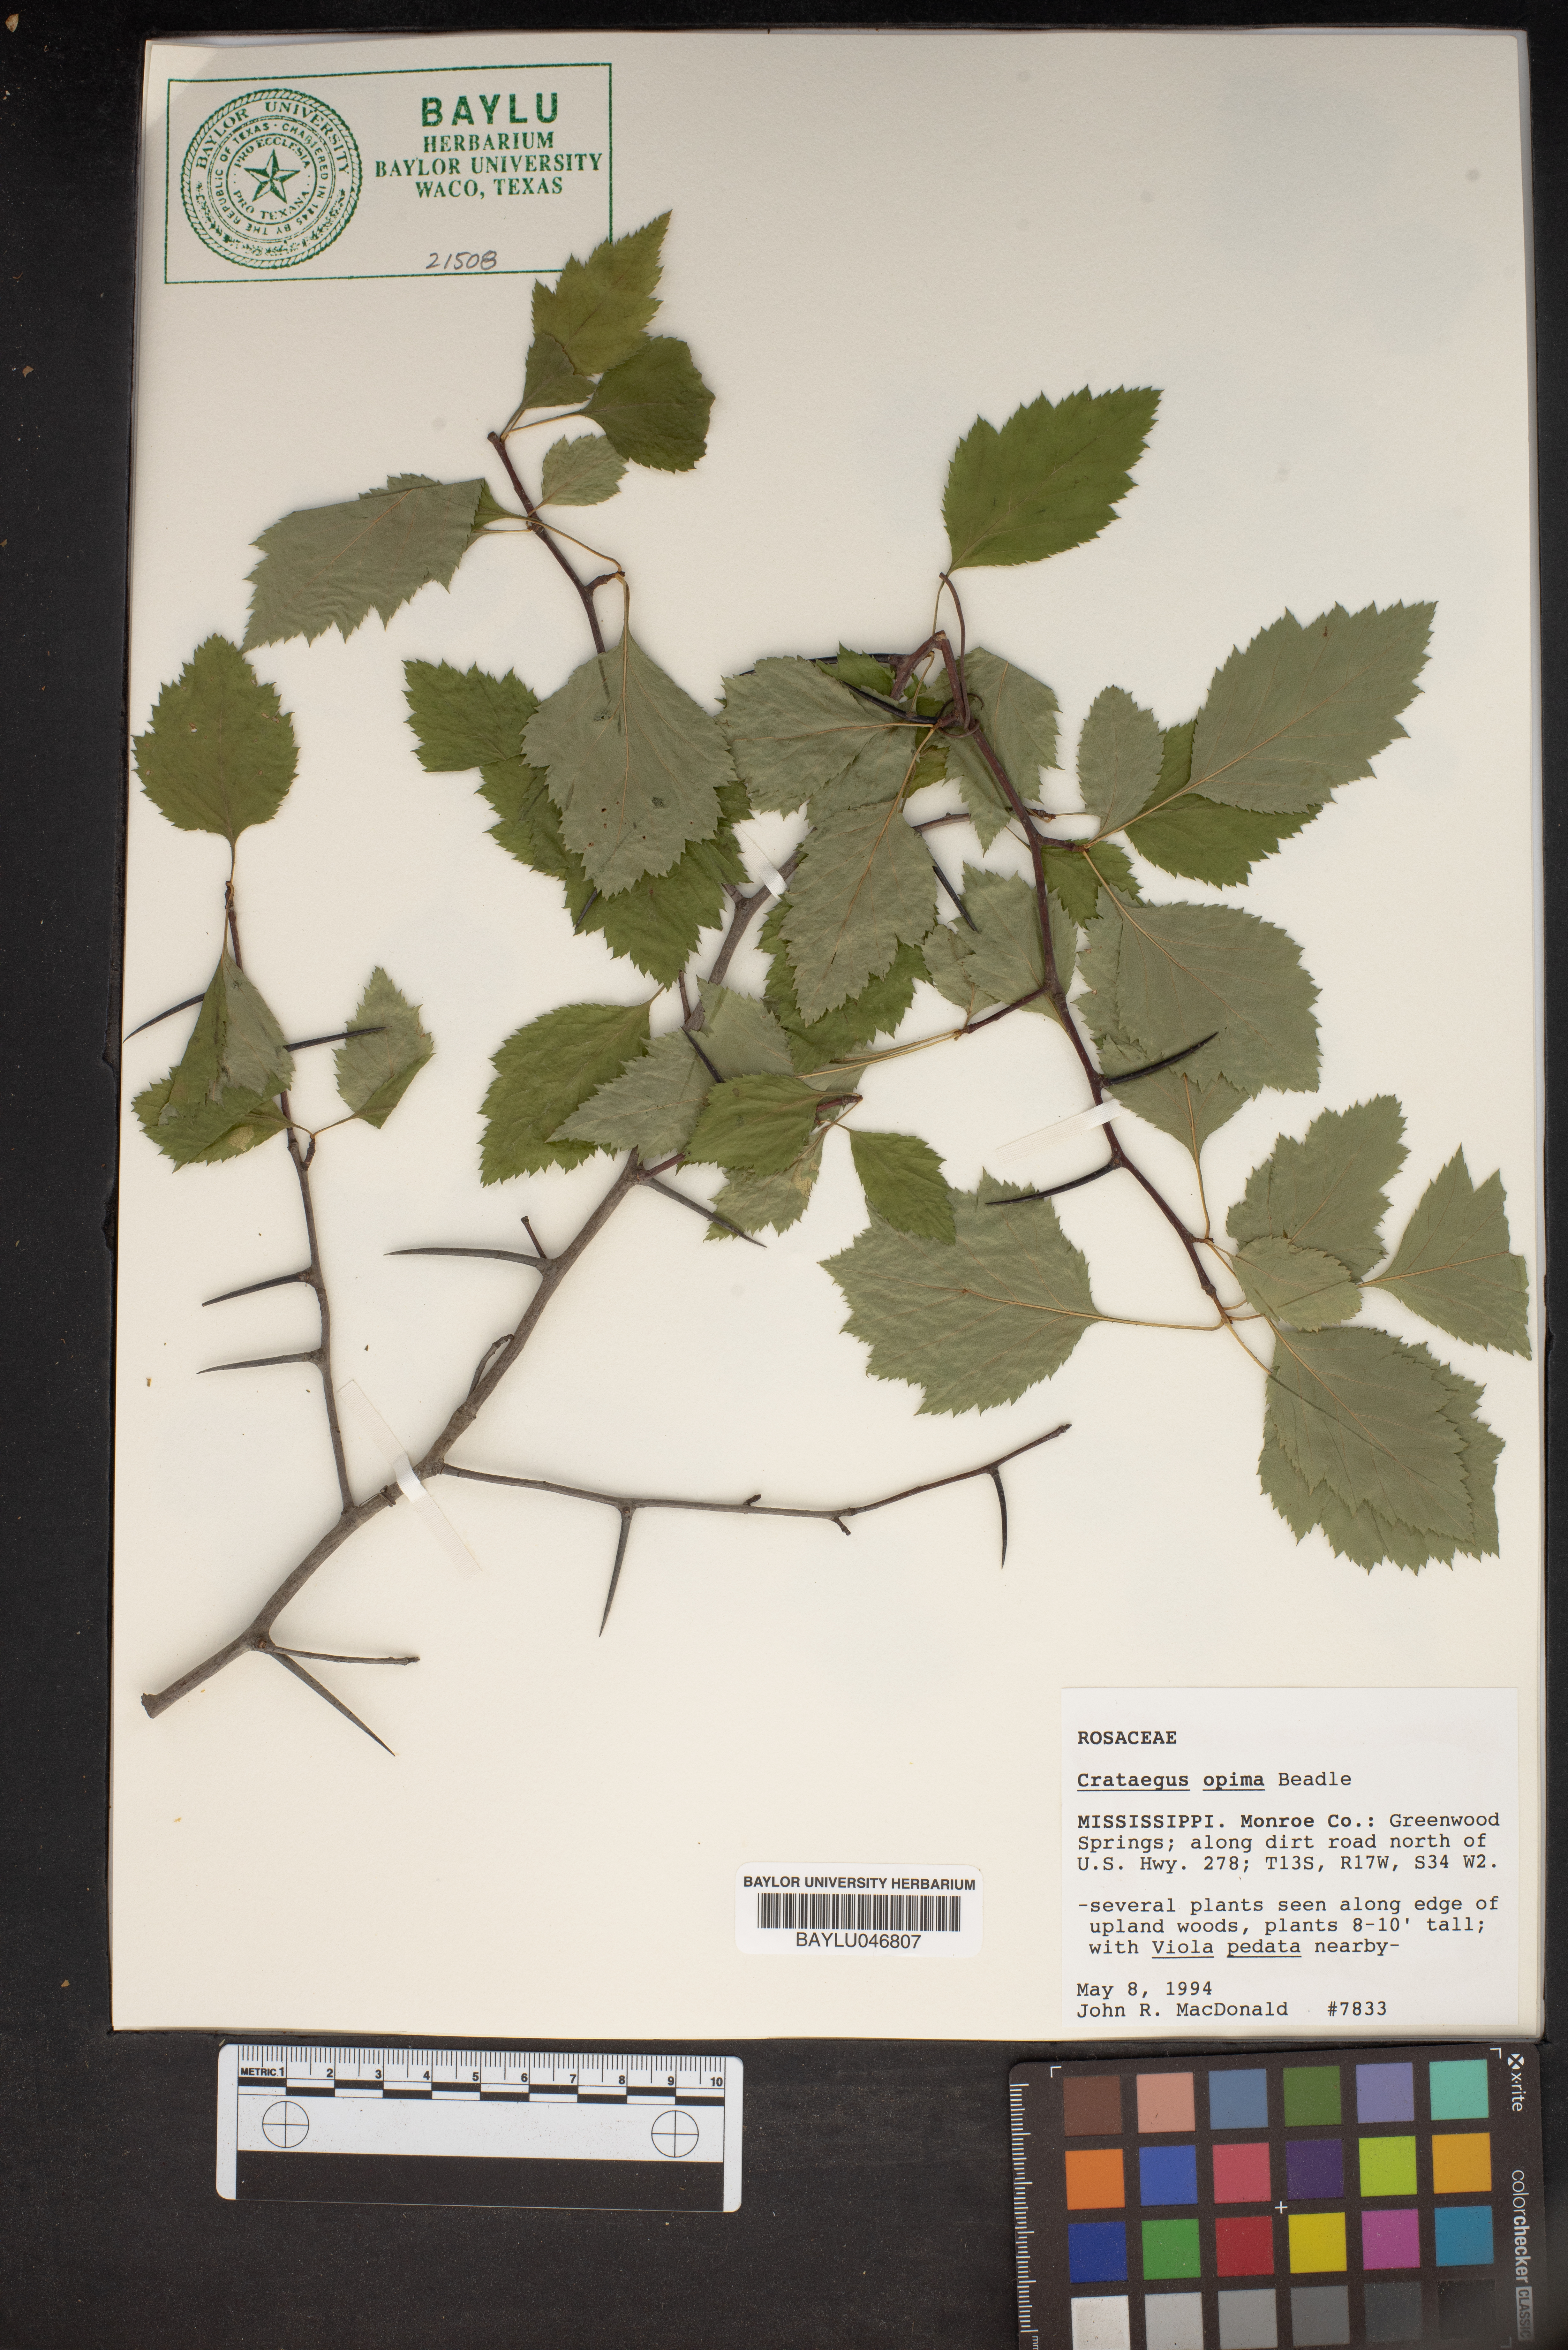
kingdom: Plantae
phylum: Tracheophyta
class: Magnoliopsida
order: Rosales
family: Rosaceae
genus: Crataegus
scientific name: Crataegus pulcherrima
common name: Beautiful hawthorn
